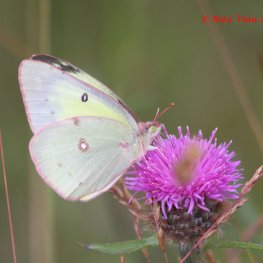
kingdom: Animalia
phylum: Arthropoda
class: Insecta
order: Lepidoptera
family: Pieridae
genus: Colias
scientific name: Colias philodice
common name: Clouded Sulphur
